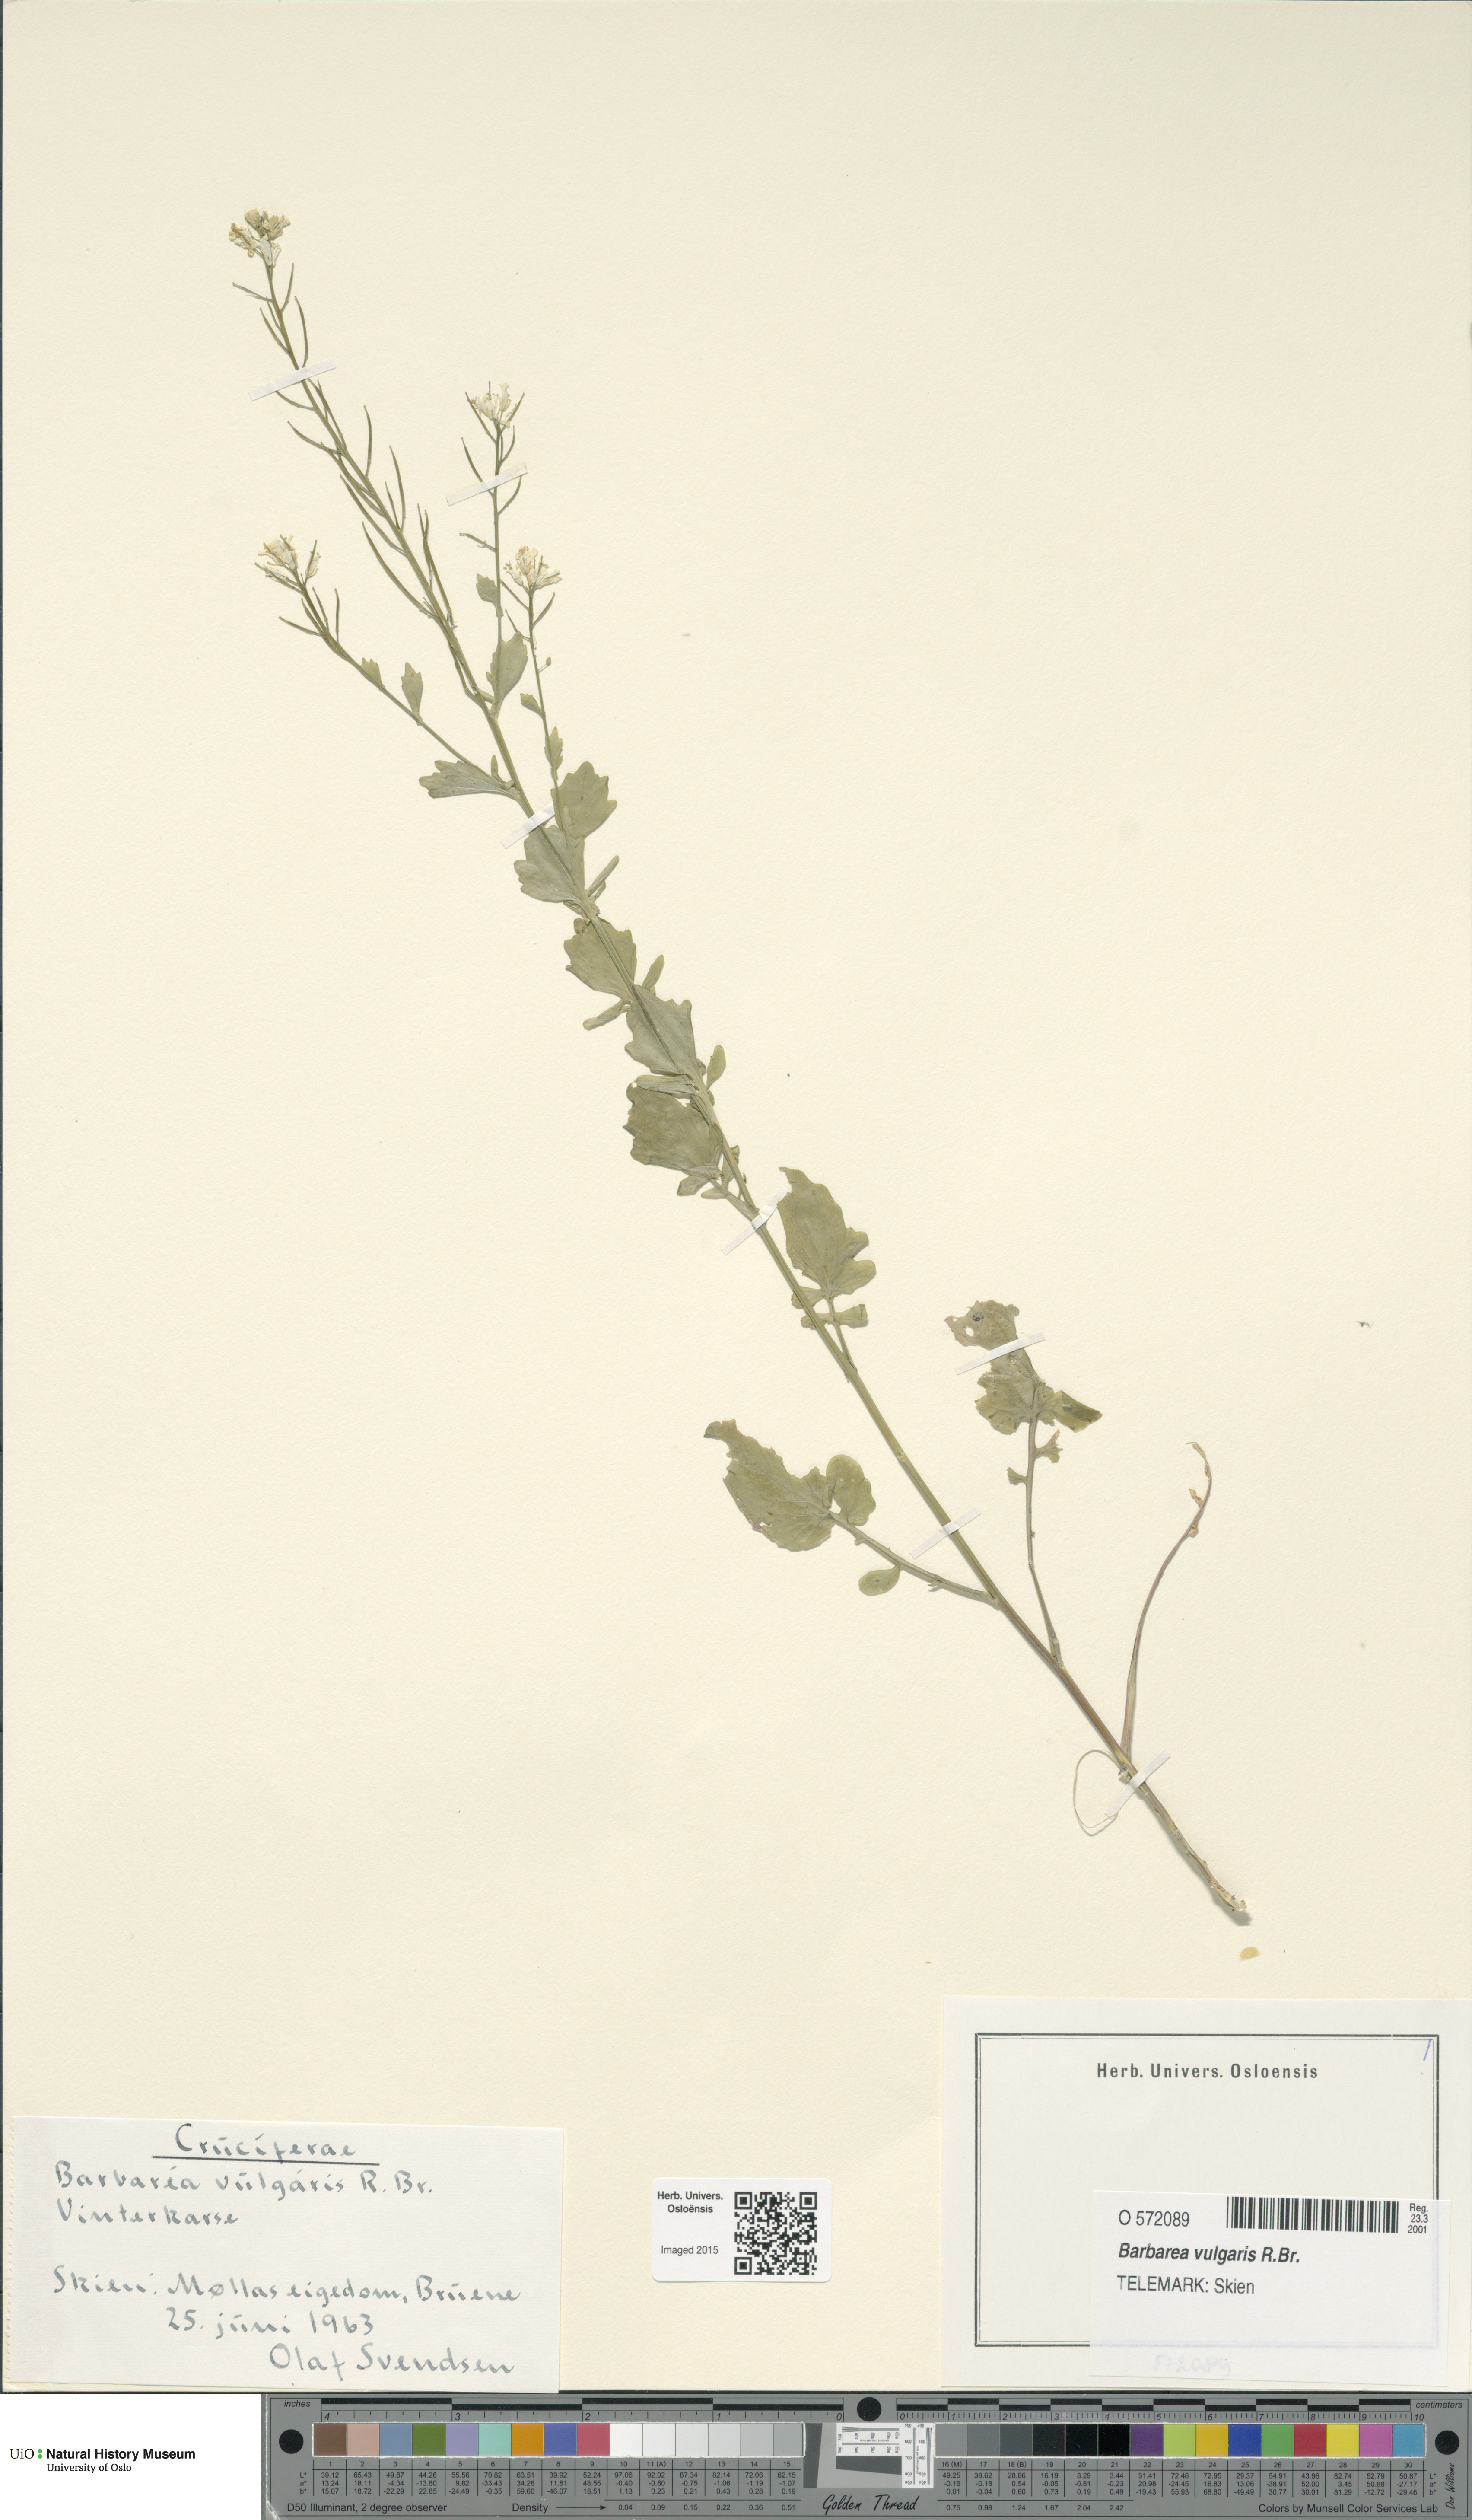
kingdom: Plantae
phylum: Tracheophyta
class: Magnoliopsida
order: Brassicales
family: Brassicaceae
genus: Barbarea
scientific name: Barbarea vulgaris
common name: Cressy-greens
